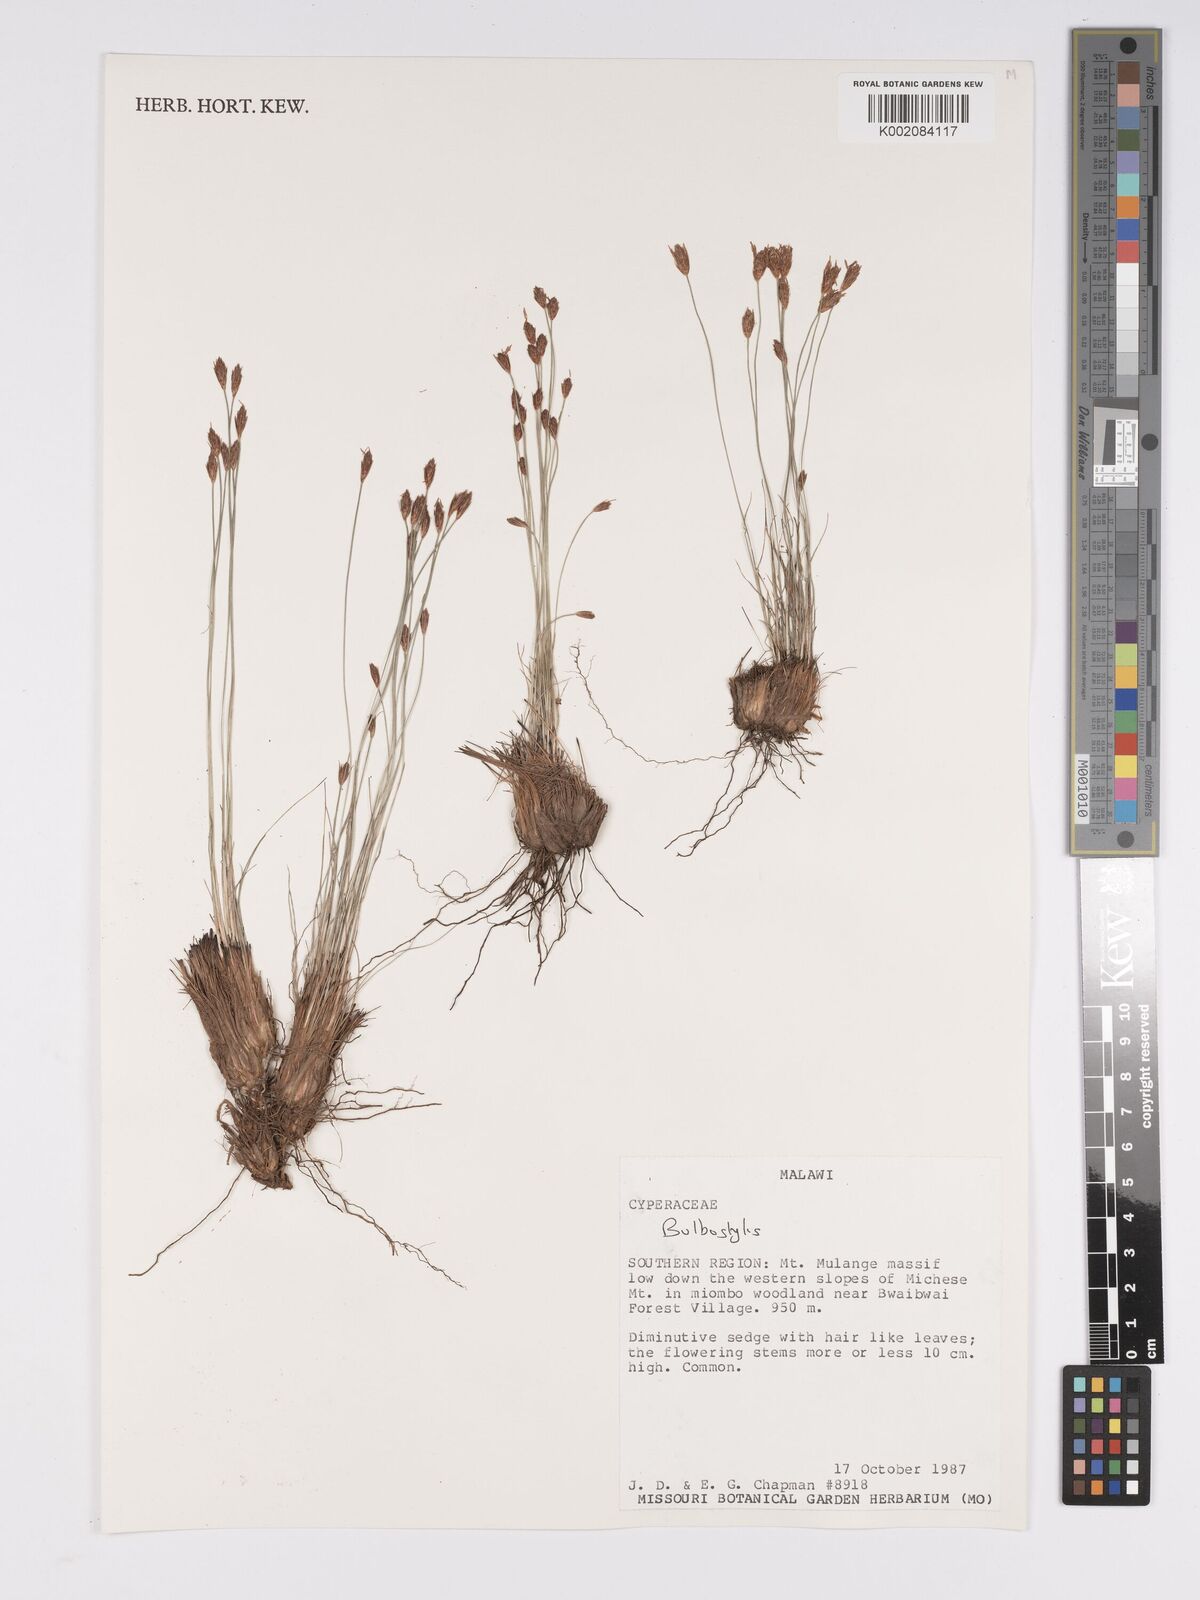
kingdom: Plantae
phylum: Tracheophyta
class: Liliopsida
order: Poales
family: Cyperaceae
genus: Bulbostylis
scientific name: Bulbostylis
